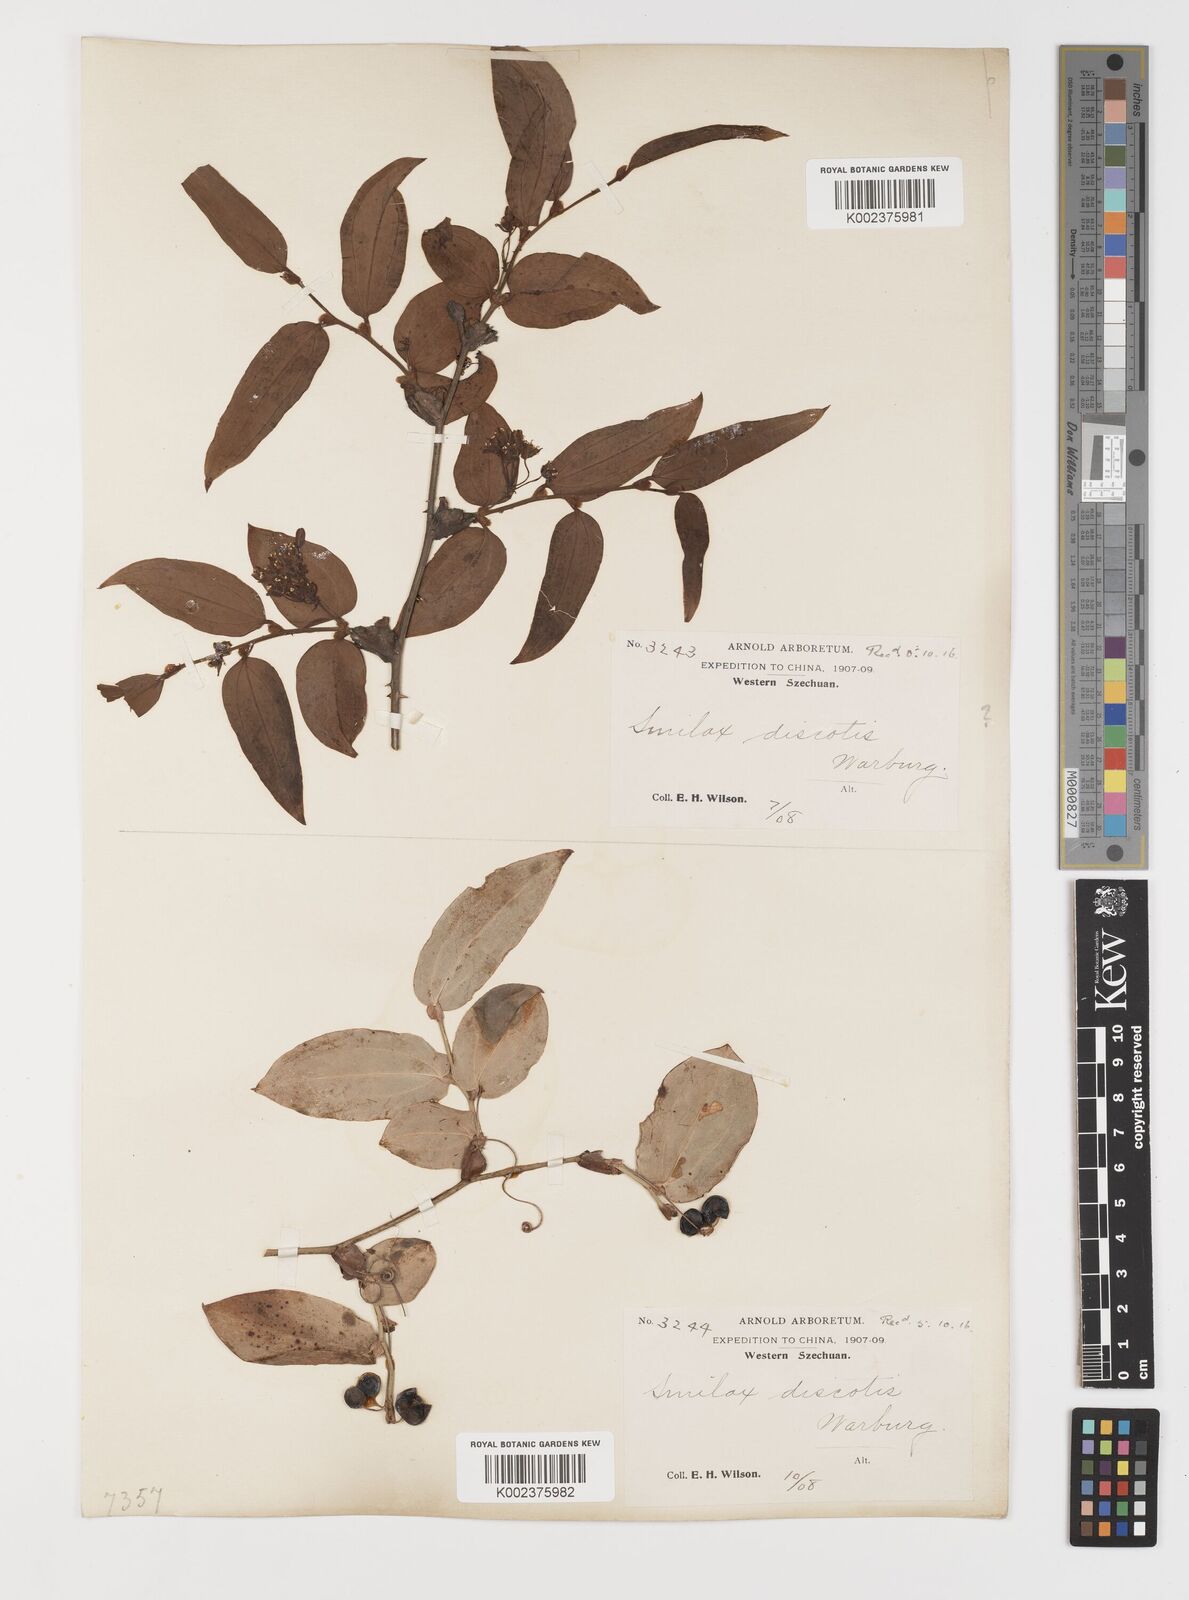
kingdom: Plantae
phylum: Tracheophyta
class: Liliopsida
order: Liliales
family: Smilacaceae
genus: Smilax
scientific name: Smilax discotis
